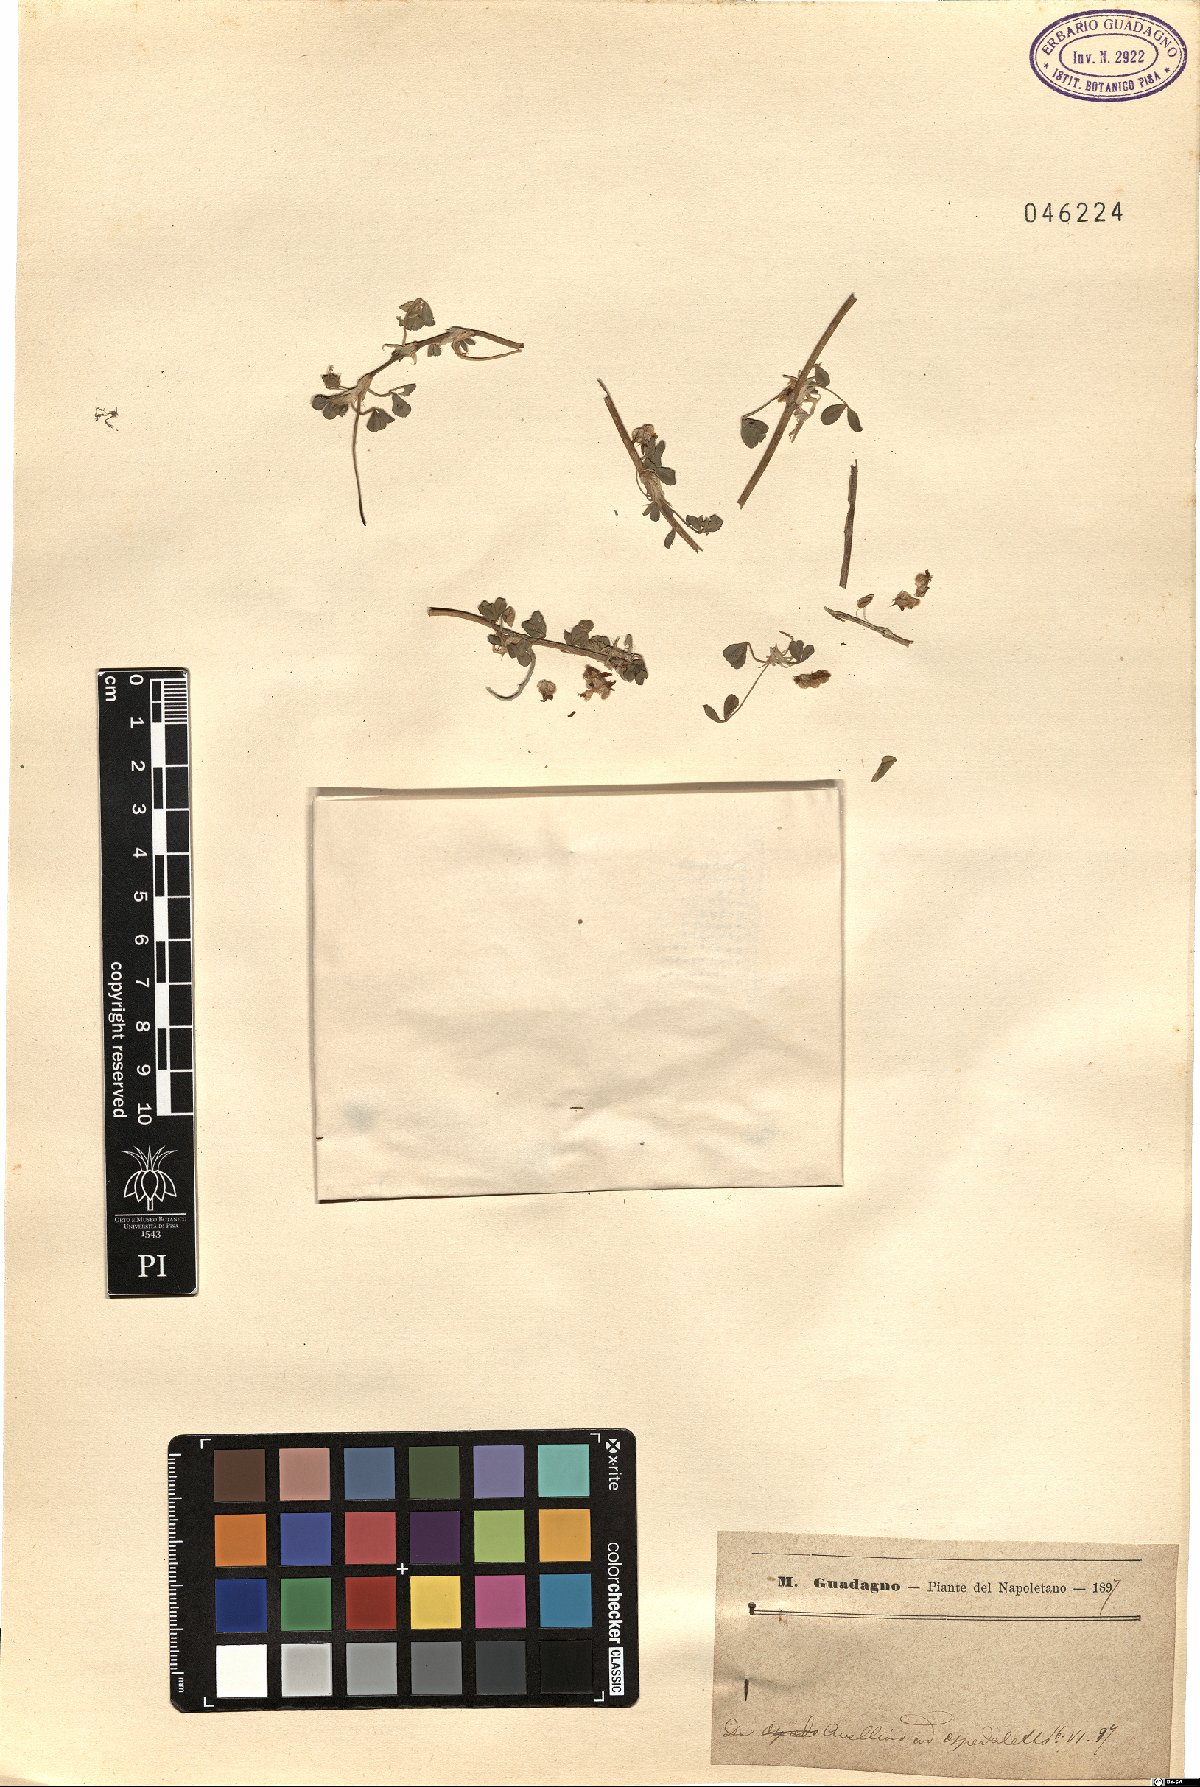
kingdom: Plantae
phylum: Tracheophyta
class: Magnoliopsida
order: Fabales
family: Fabaceae
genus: Trifolium
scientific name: Trifolium
